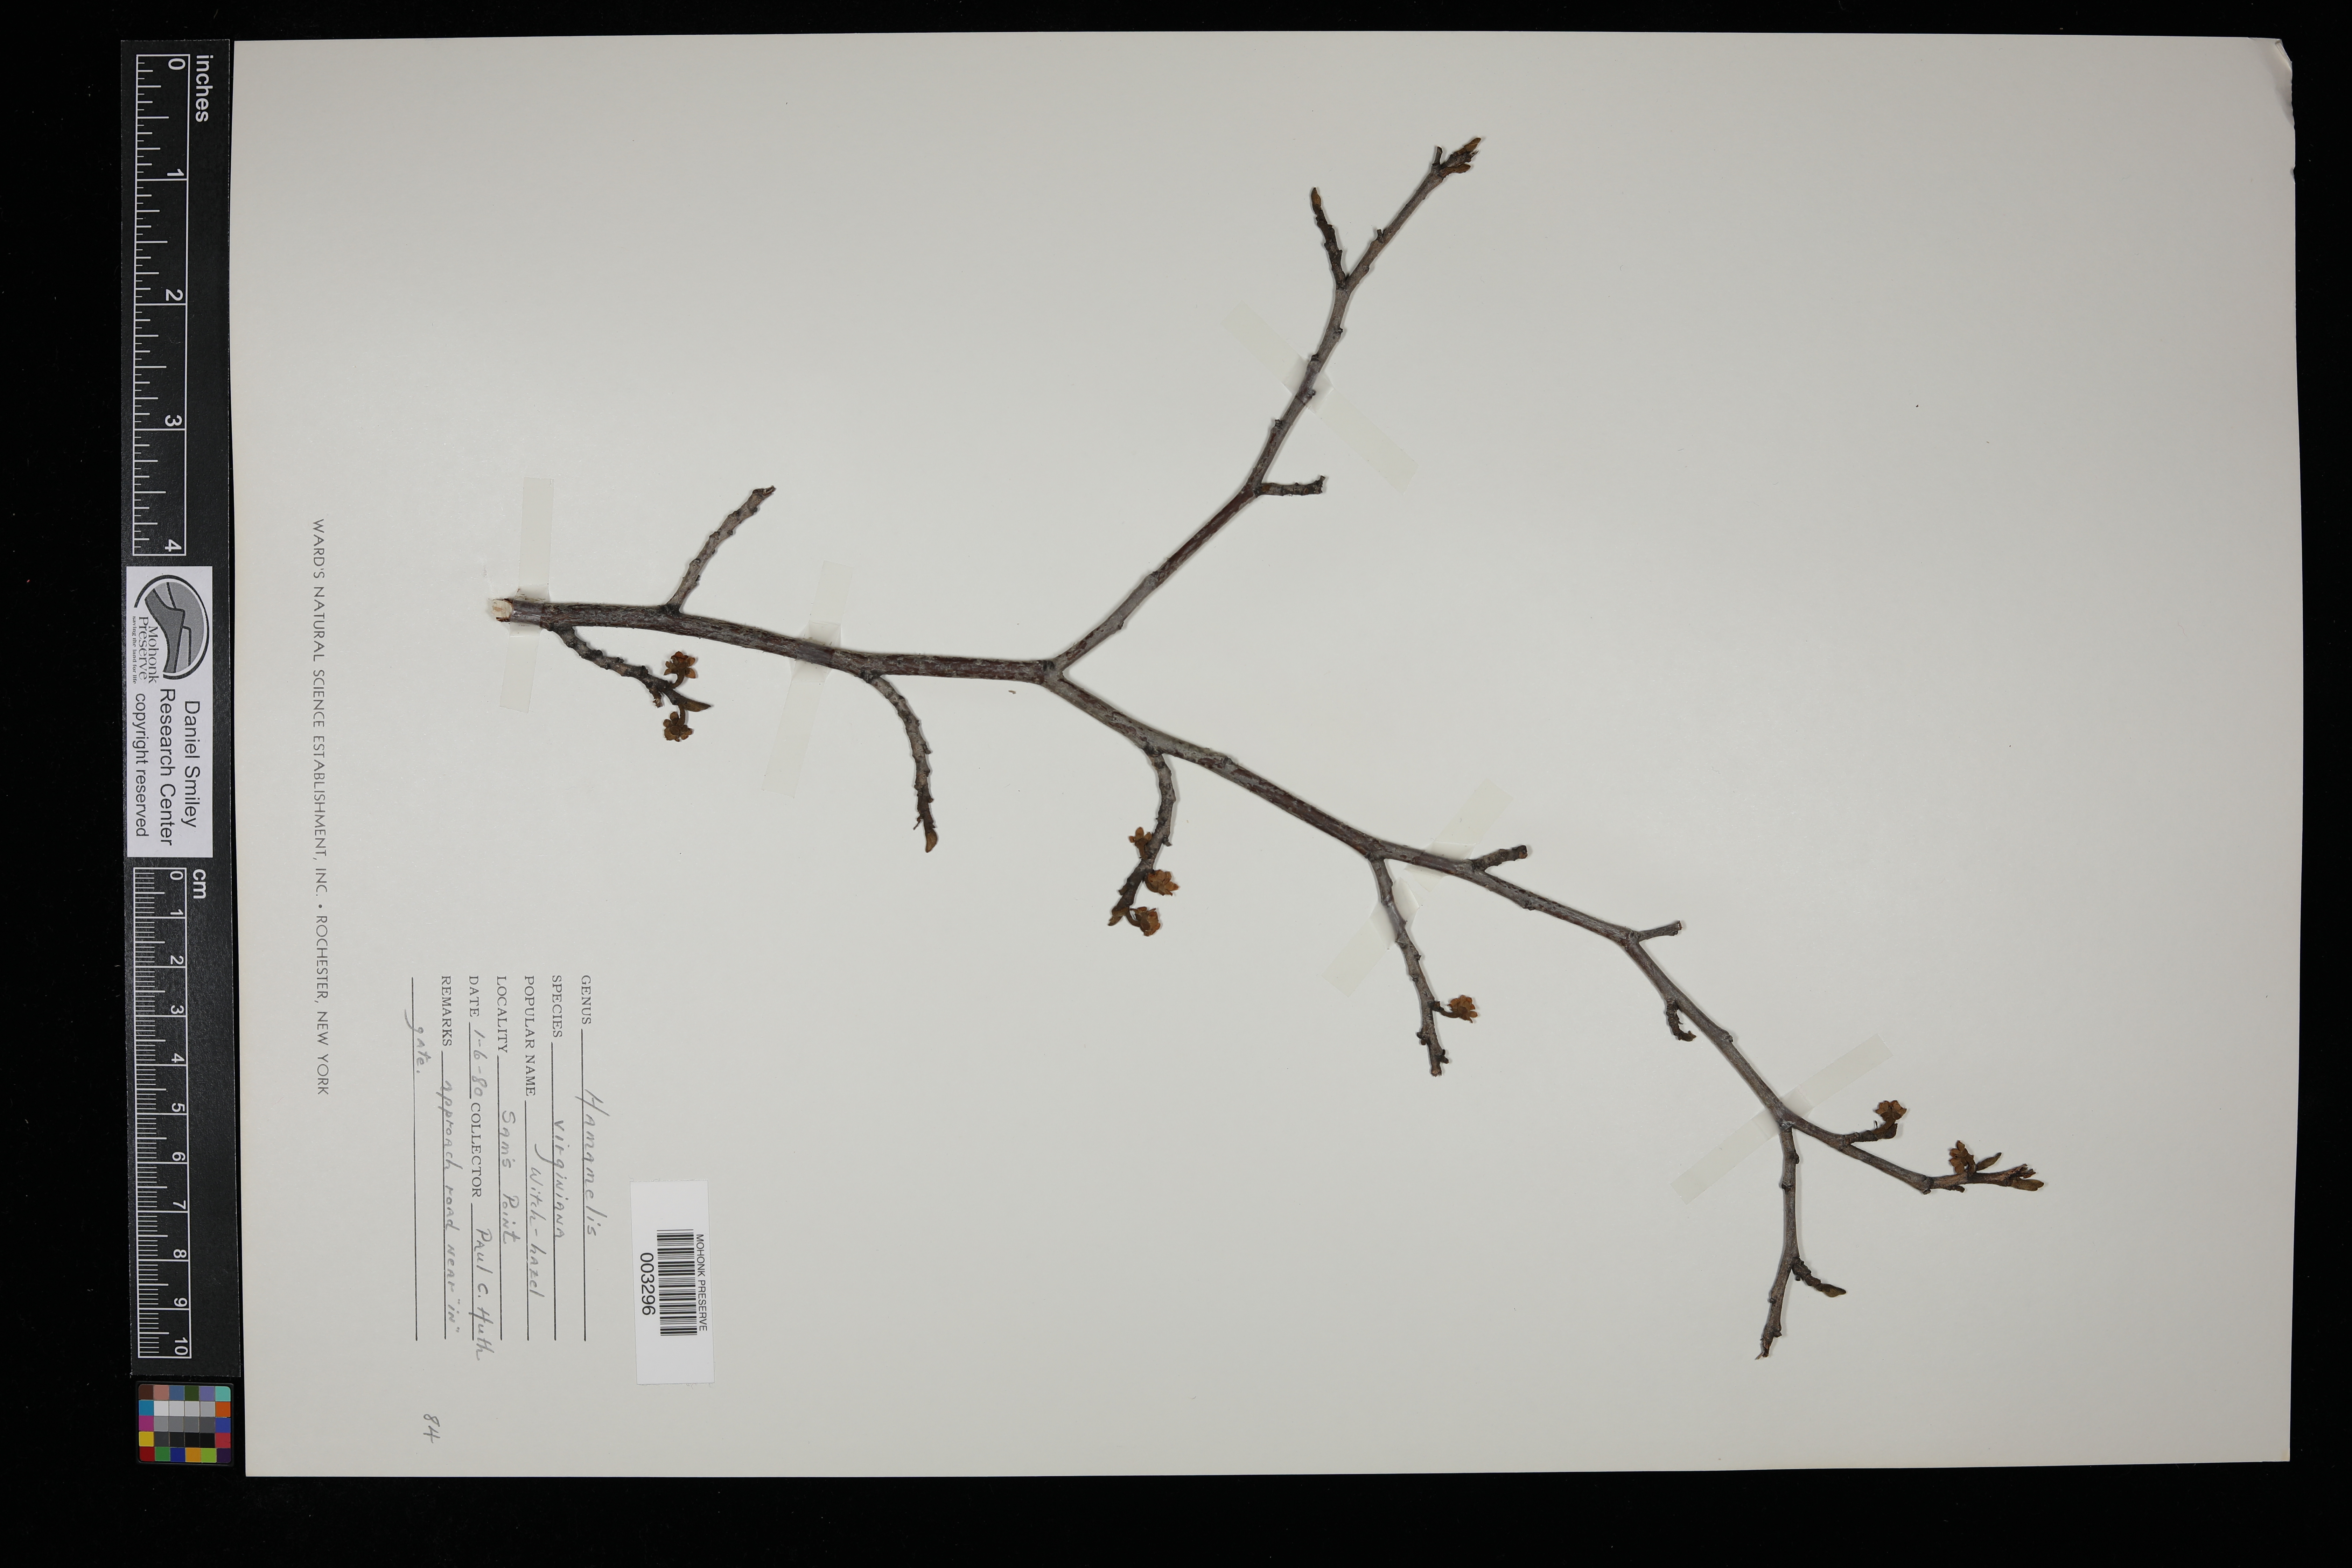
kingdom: Plantae
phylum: Tracheophyta
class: Magnoliopsida
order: Saxifragales
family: Hamamelidaceae
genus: Hamamelis
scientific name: Hamamelis virginiana
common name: Witch-hazel
